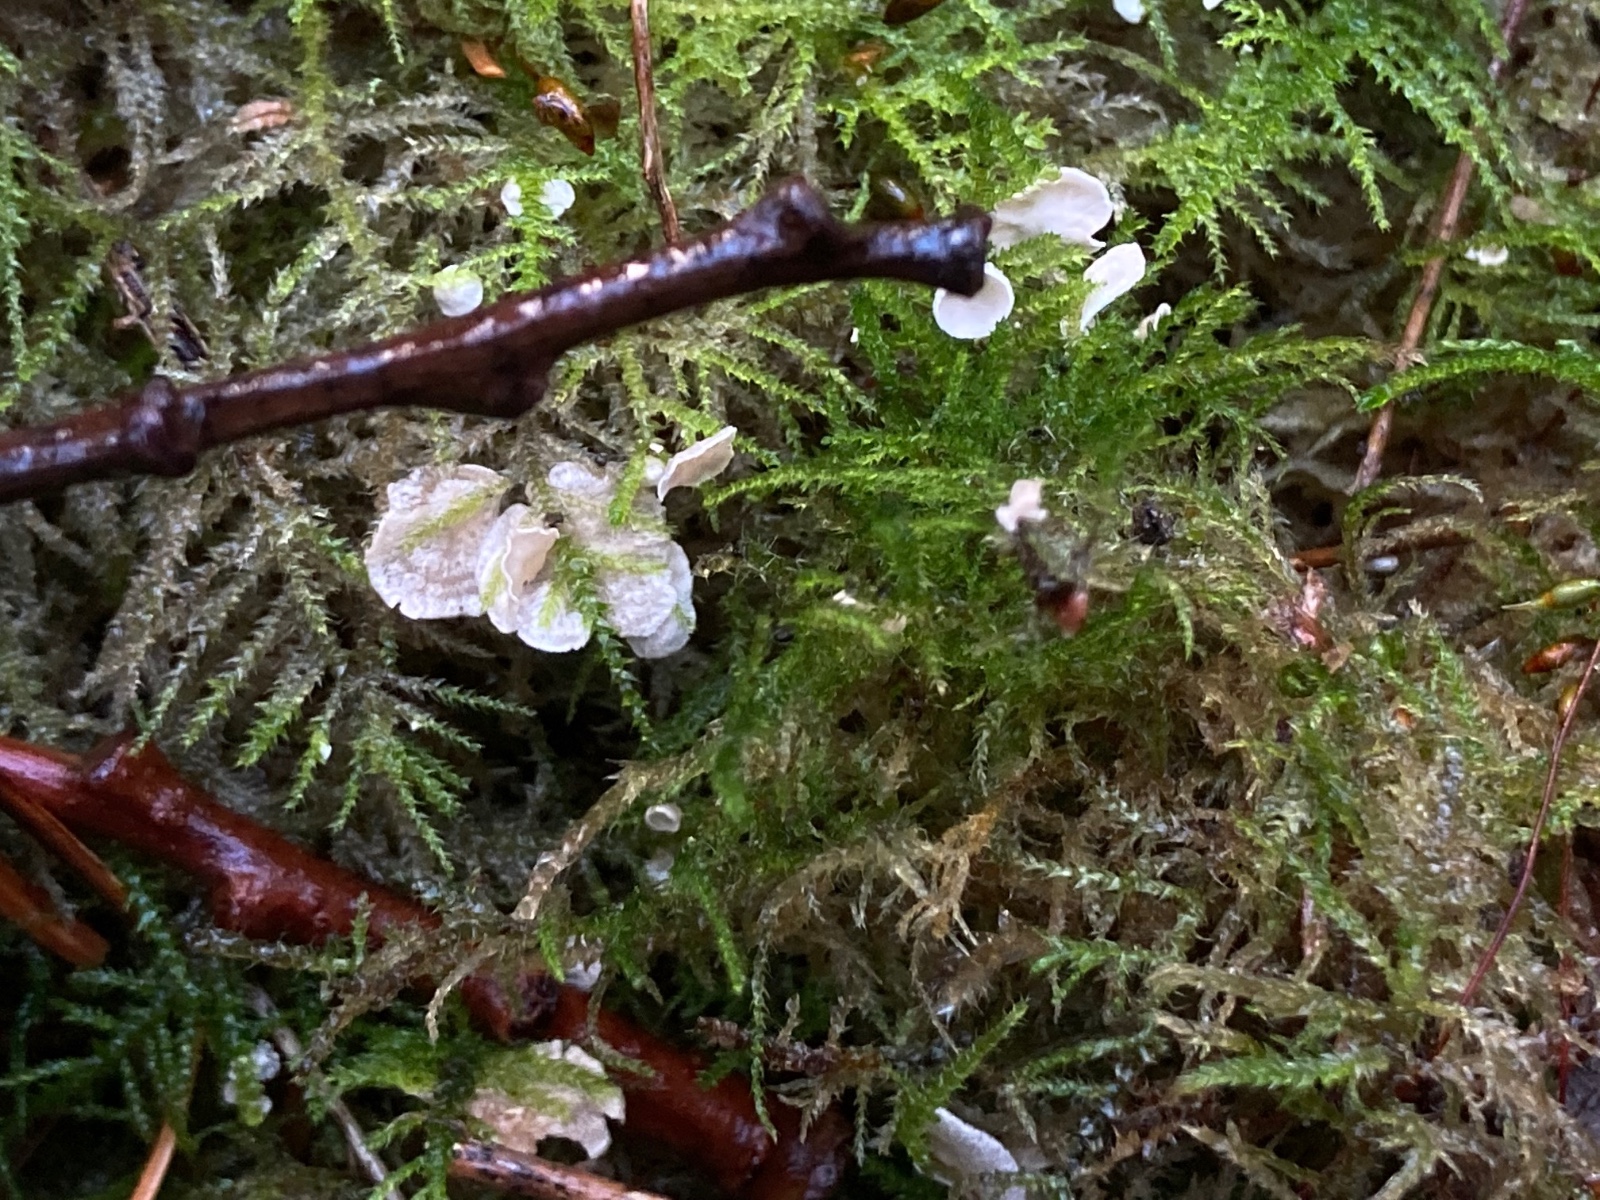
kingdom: Fungi
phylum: Basidiomycota
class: Agaricomycetes
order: Agaricales
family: Hygrophoraceae
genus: Arrhenia
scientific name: Arrhenia retiruga
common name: lille fontænehat
